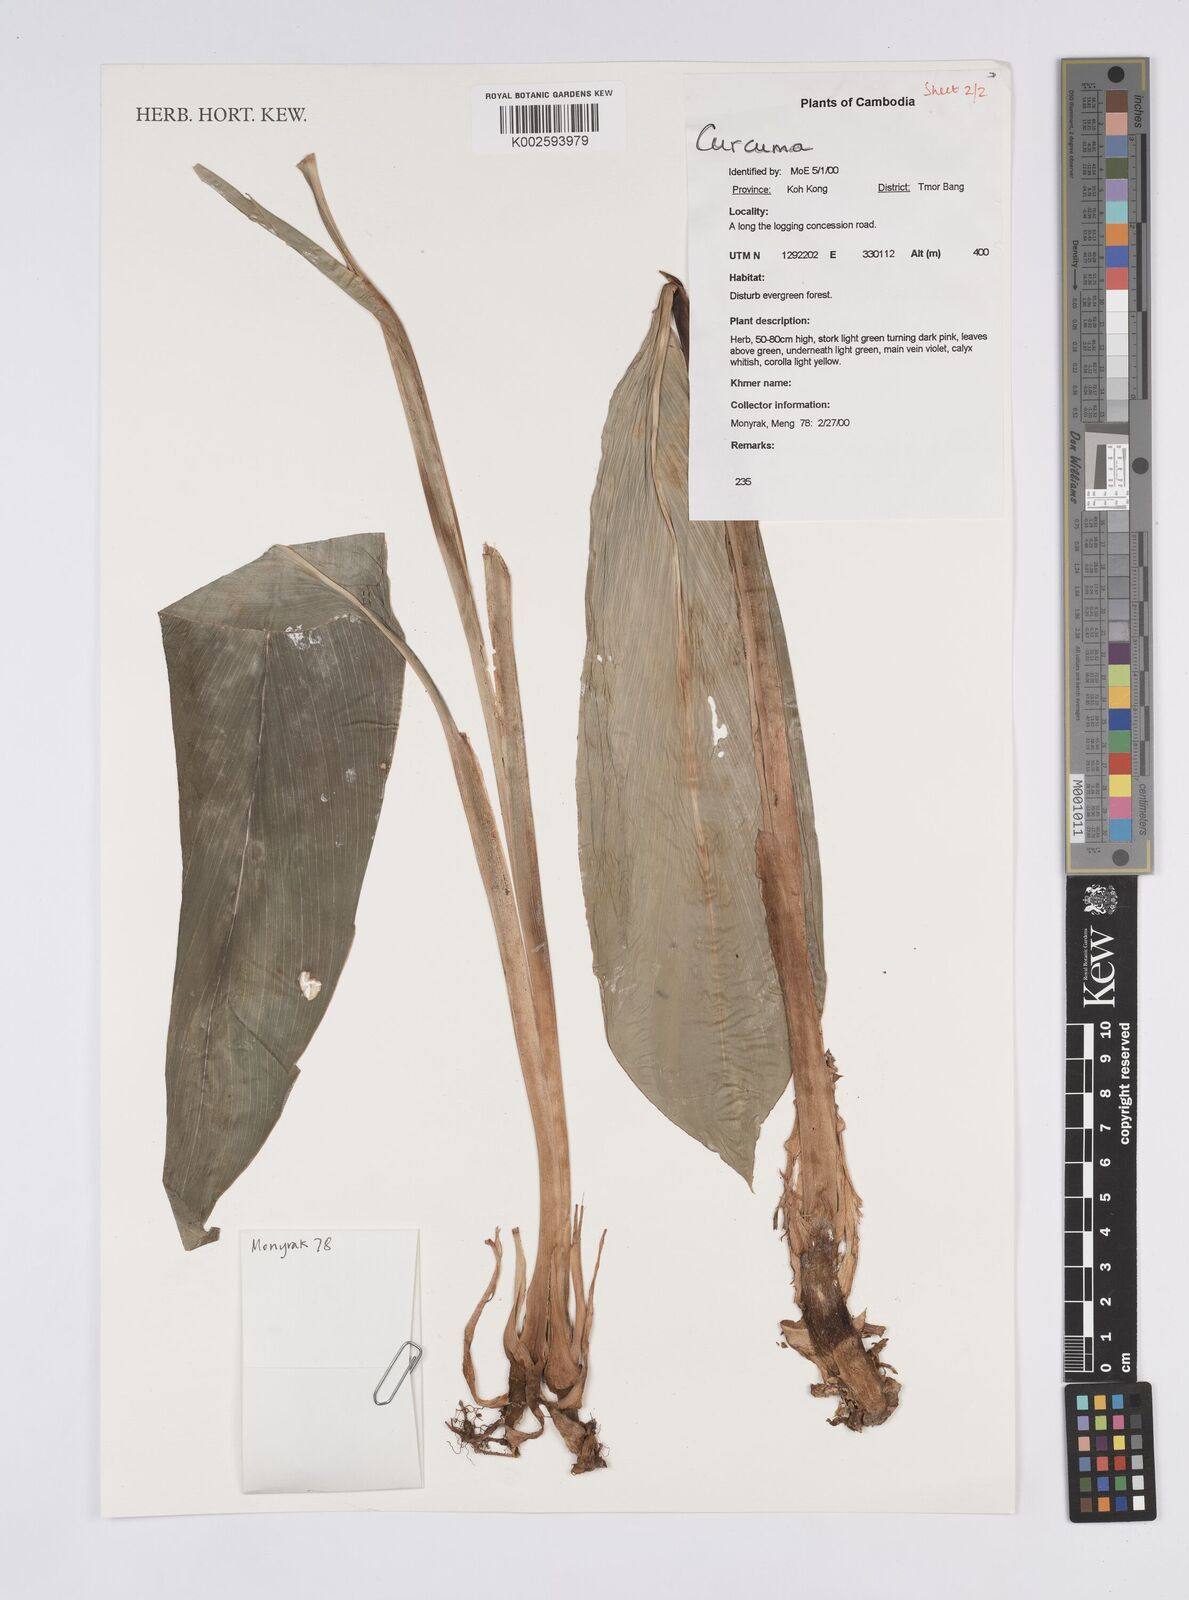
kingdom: Plantae
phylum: Tracheophyta
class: Liliopsida
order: Zingiberales
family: Zingiberaceae
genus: Curcuma
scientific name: Curcuma
